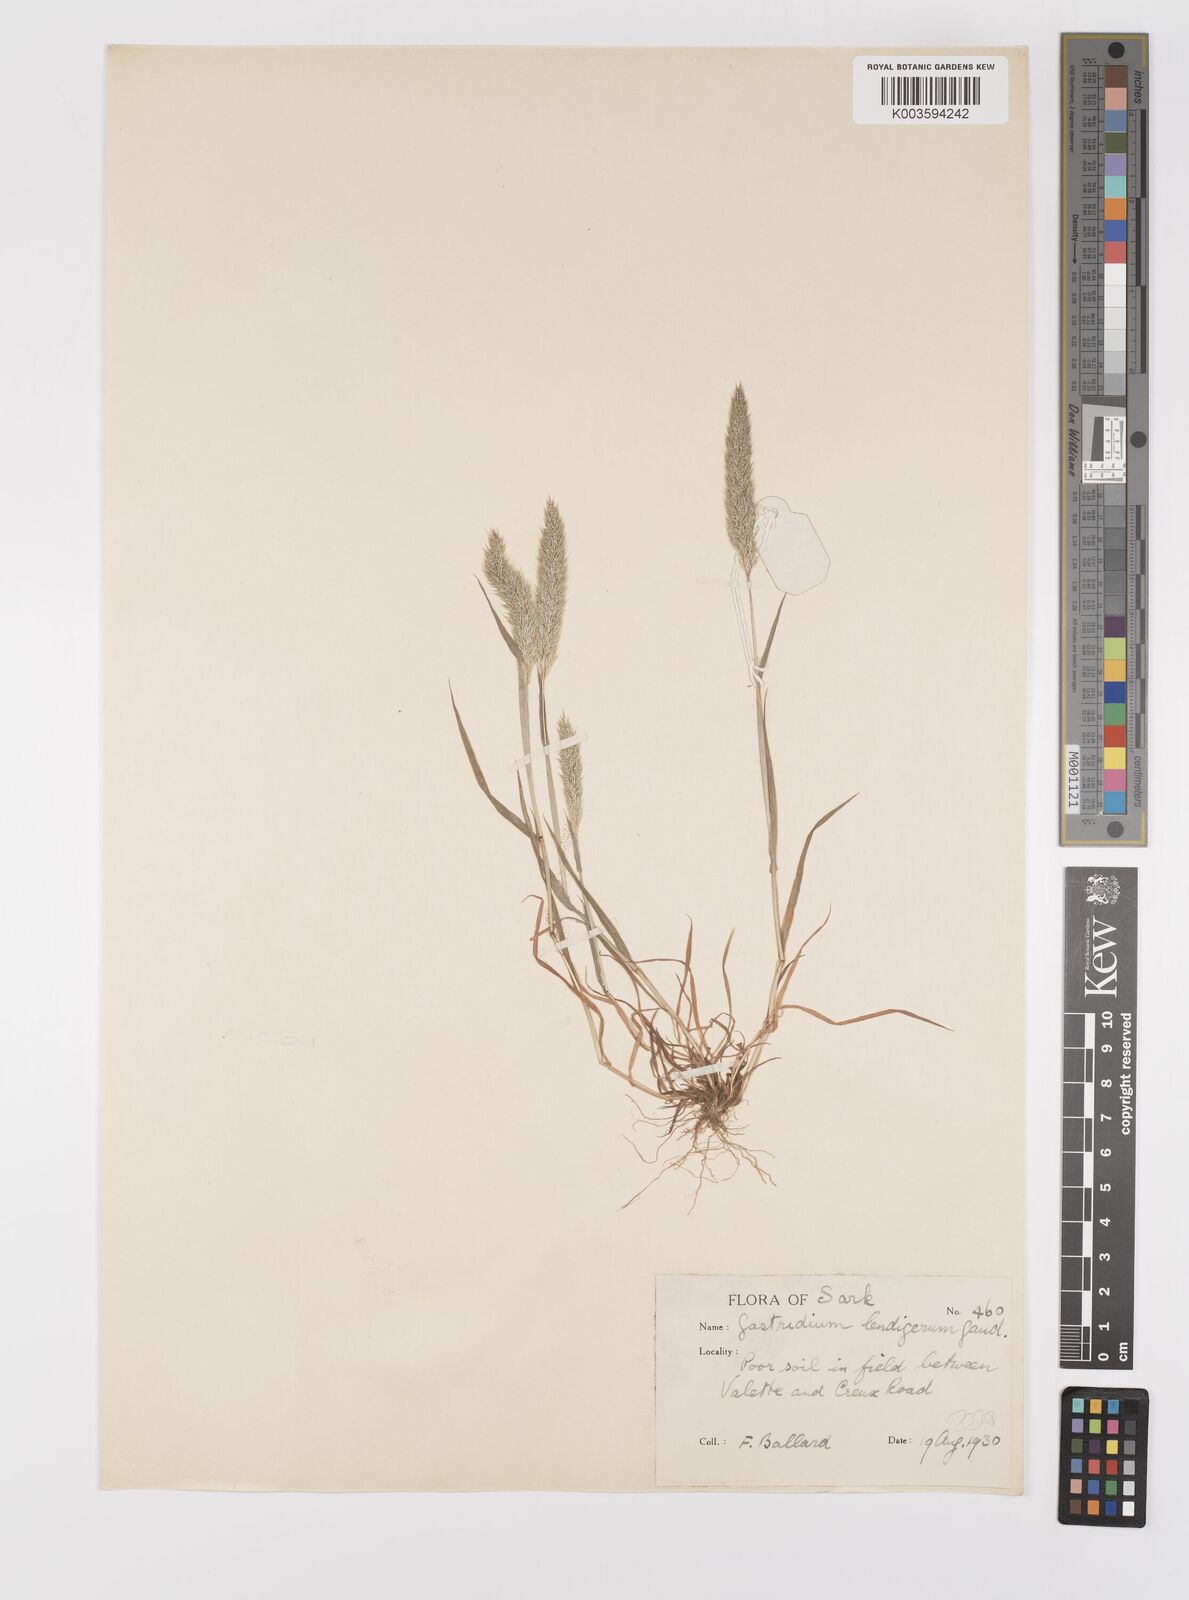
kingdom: Plantae
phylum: Tracheophyta
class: Liliopsida
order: Poales
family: Poaceae
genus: Gastridium
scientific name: Gastridium ventricosum
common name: Nit-grass
